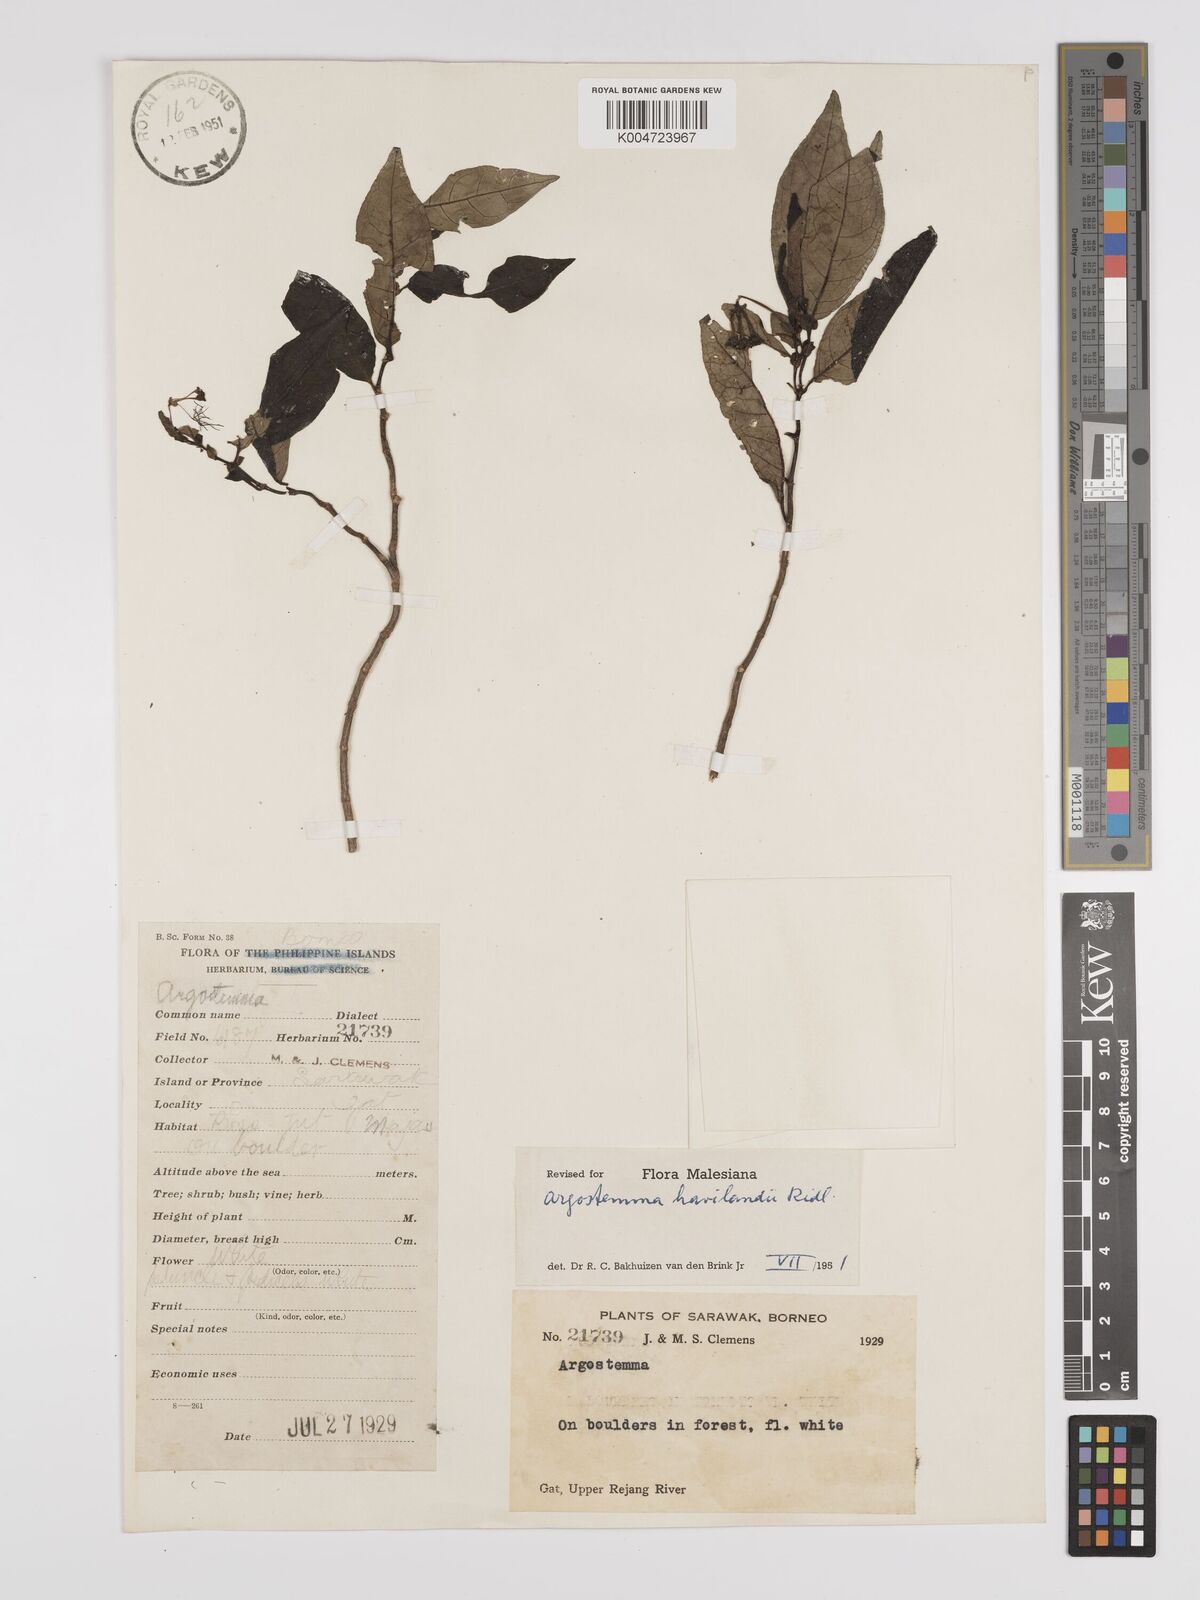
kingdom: Plantae
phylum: Tracheophyta
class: Magnoliopsida
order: Gentianales
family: Rubiaceae
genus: Argostemma
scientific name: Argostemma havilandii
